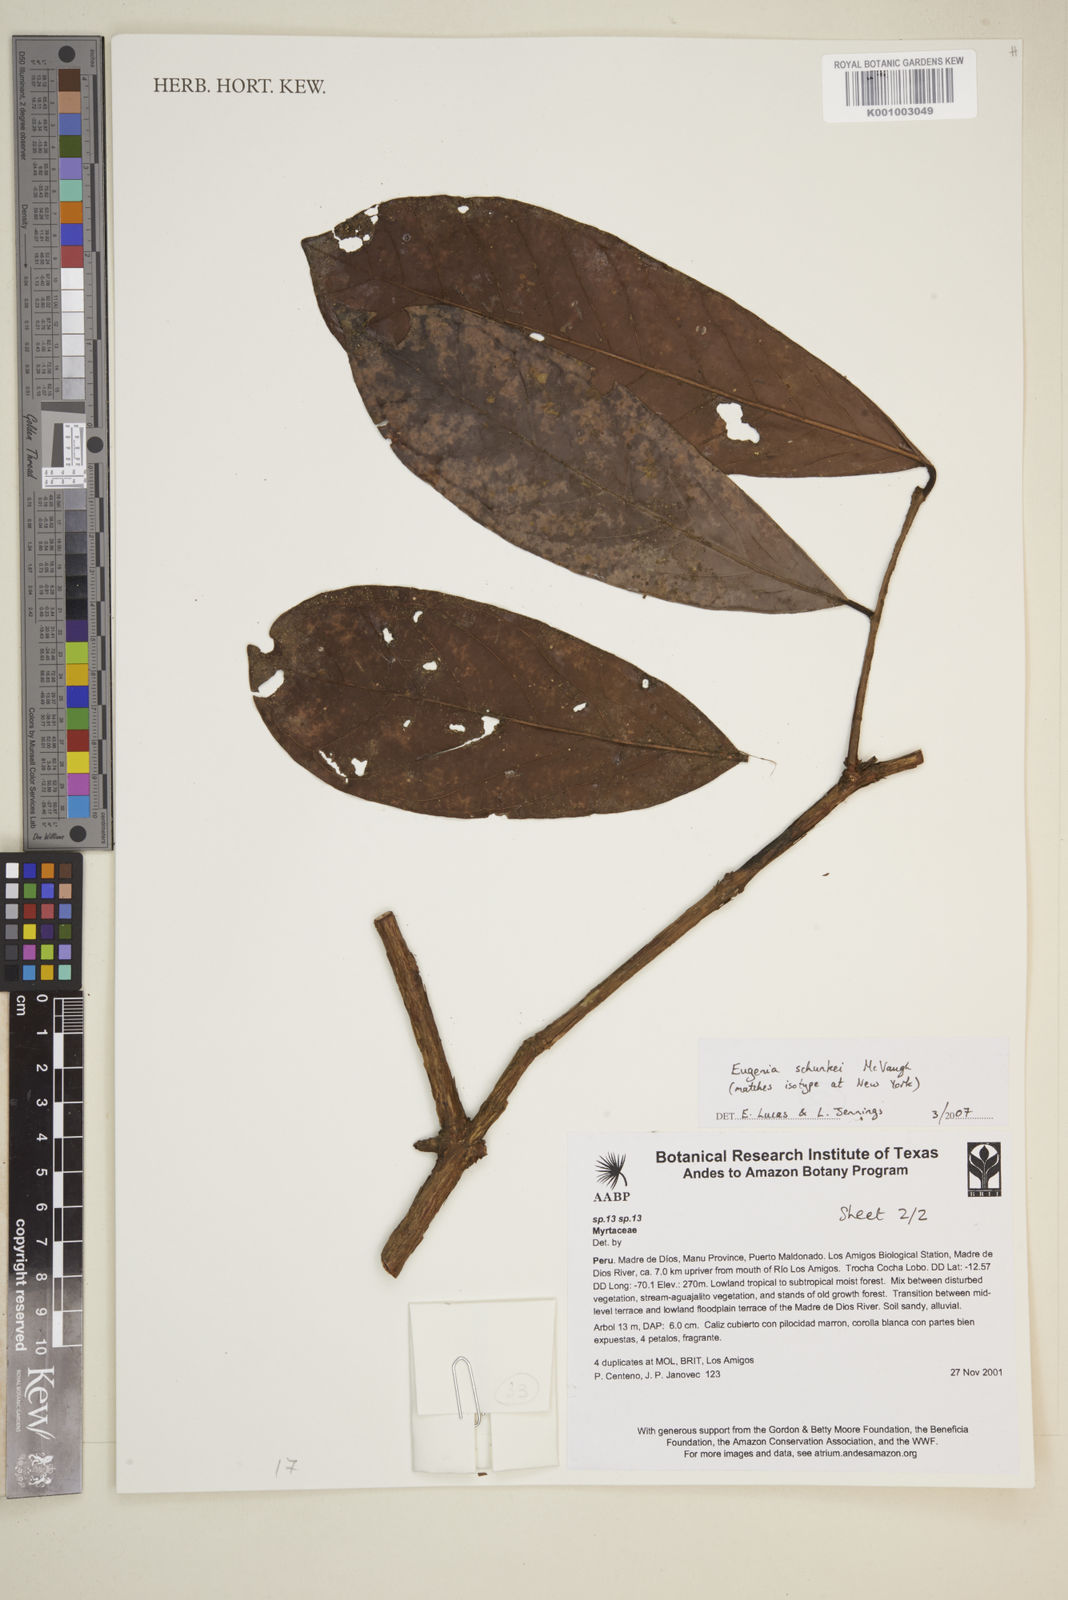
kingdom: Plantae
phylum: Tracheophyta
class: Magnoliopsida
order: Myrtales
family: Myrtaceae
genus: Eugenia
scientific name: Eugenia schunkei
